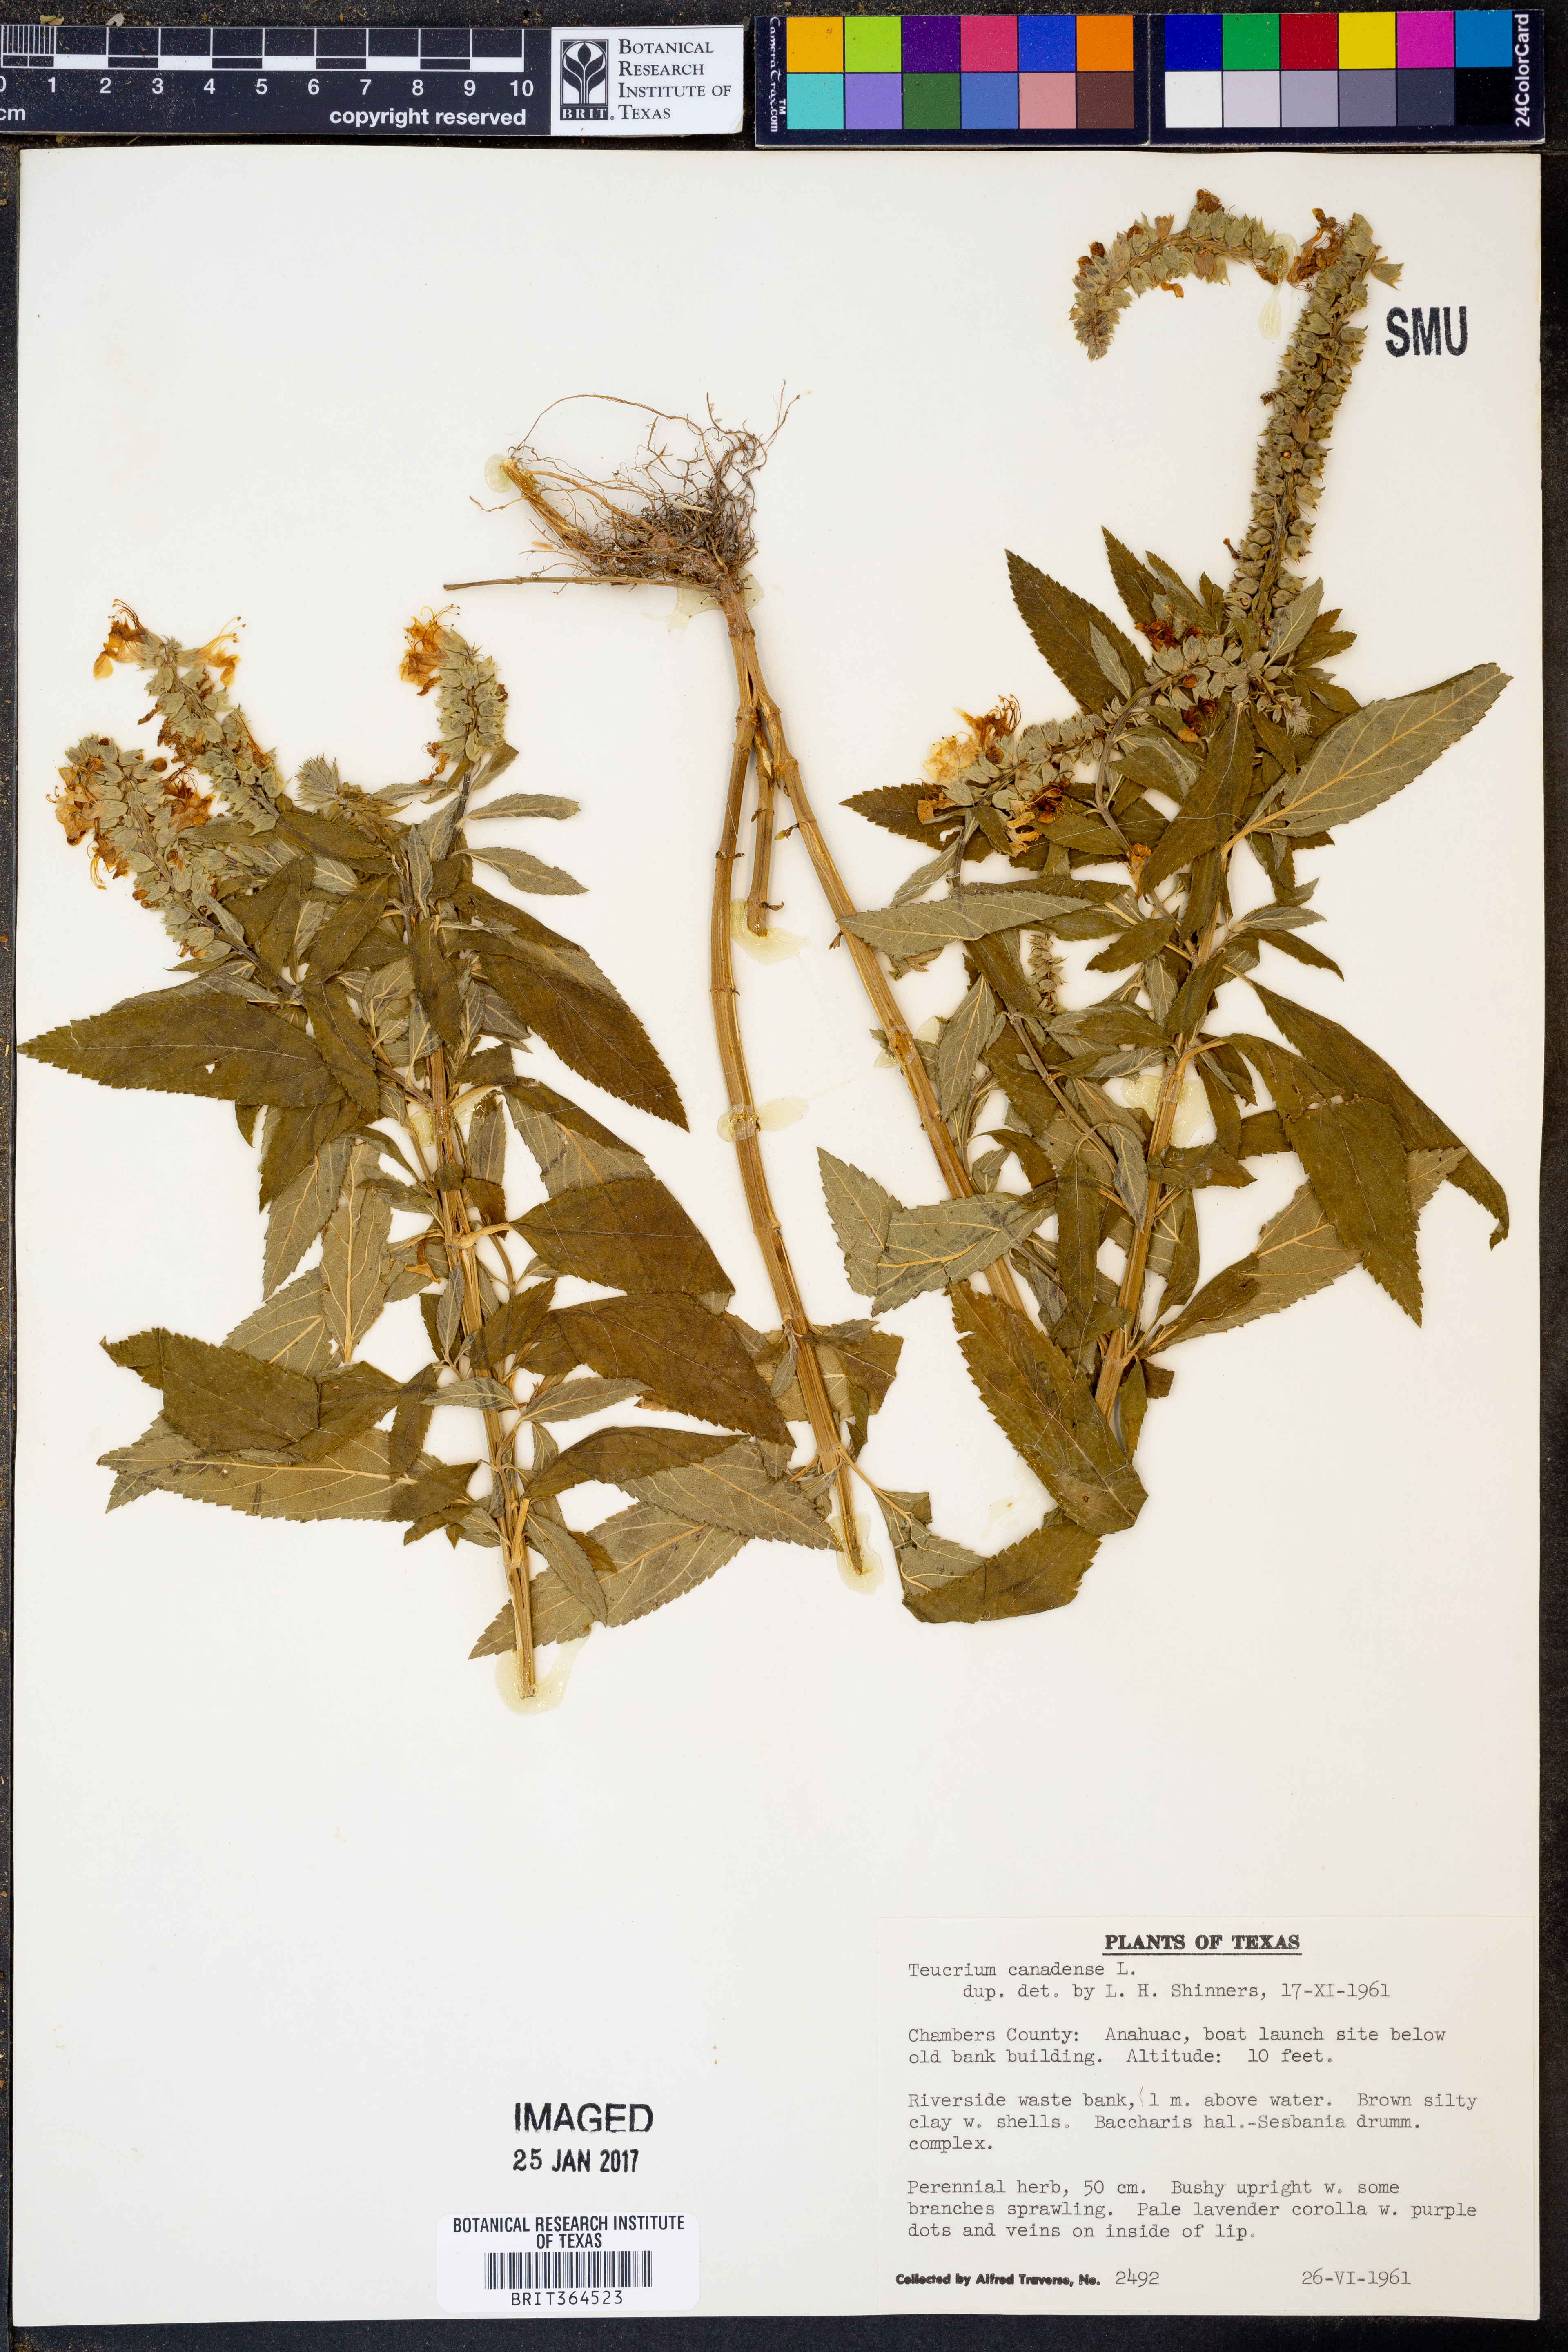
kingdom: Plantae
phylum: Tracheophyta
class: Magnoliopsida
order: Lamiales
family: Lamiaceae
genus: Teucrium
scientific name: Teucrium canadense
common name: American germander
